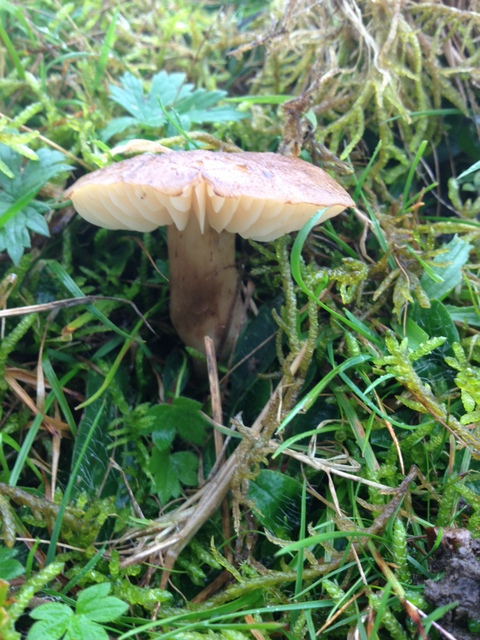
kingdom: Fungi
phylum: Basidiomycota
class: Agaricomycetes
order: Agaricales
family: Hygrophoraceae
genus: Hygrocybe
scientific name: Hygrocybe ingrata
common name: Jensens vokshat
